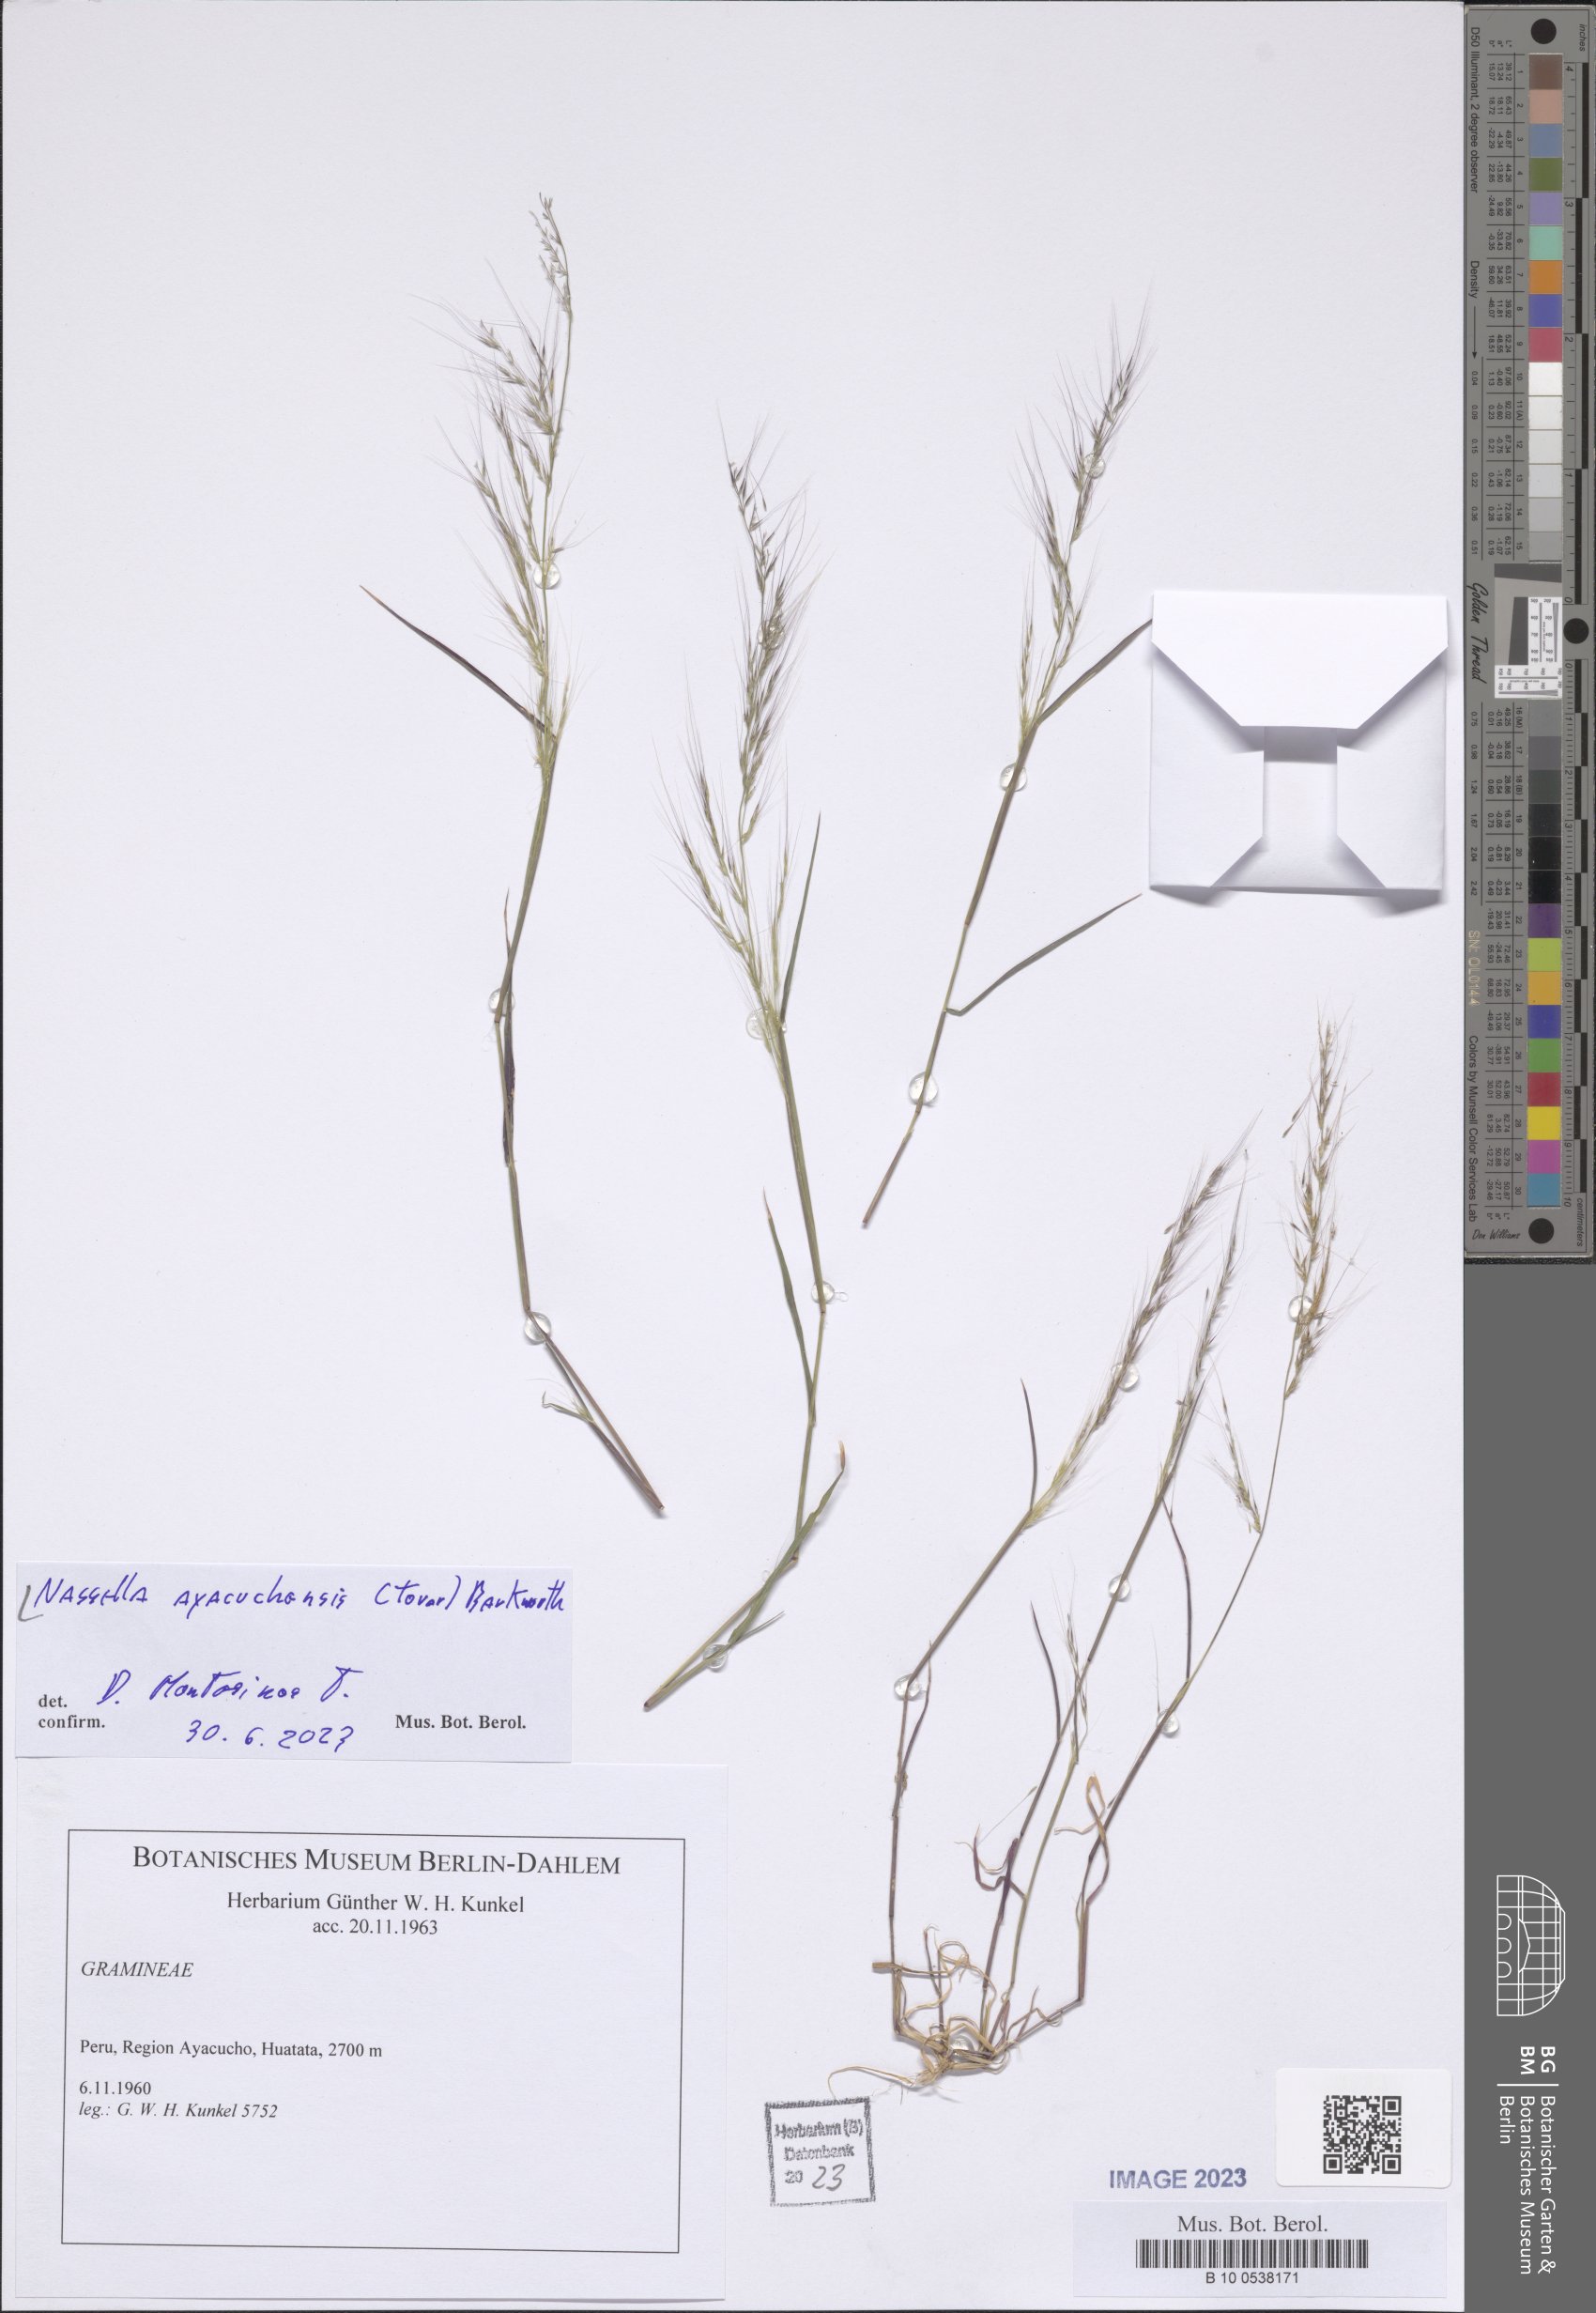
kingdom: Plantae
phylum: Tracheophyta
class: Liliopsida
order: Poales
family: Poaceae
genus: Nassella
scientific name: Nassella ayacuchensis
